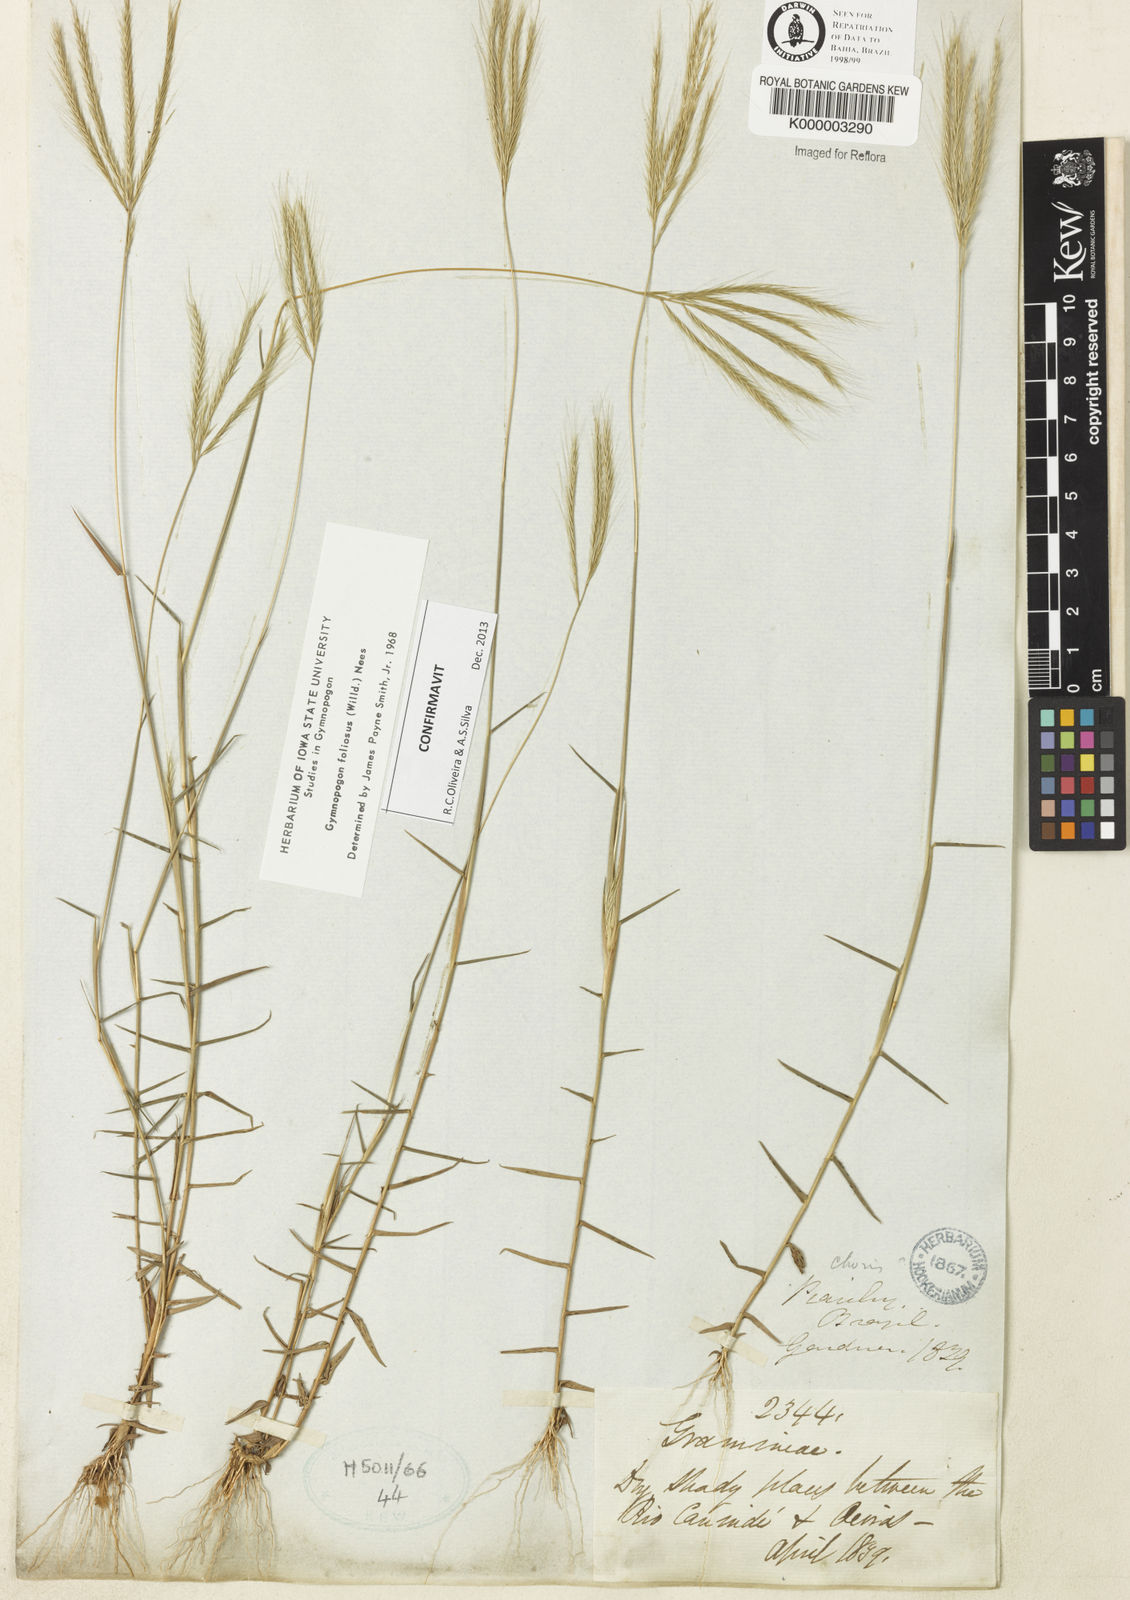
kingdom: Plantae
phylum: Tracheophyta
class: Liliopsida
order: Poales
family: Poaceae
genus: Gymnopogon
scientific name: Gymnopogon foliosus
